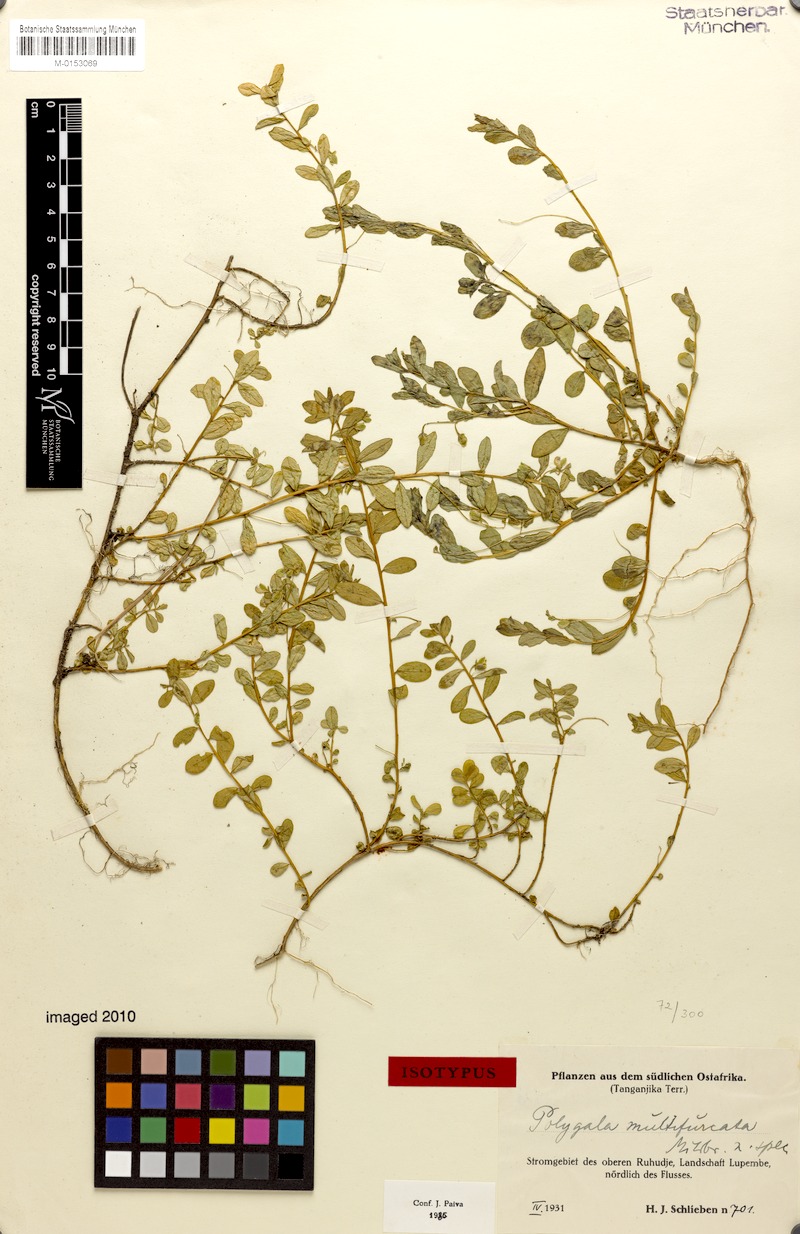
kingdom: Plantae
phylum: Tracheophyta
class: Magnoliopsida
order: Fabales
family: Polygalaceae
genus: Polygala
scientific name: Polygala multifurcata
